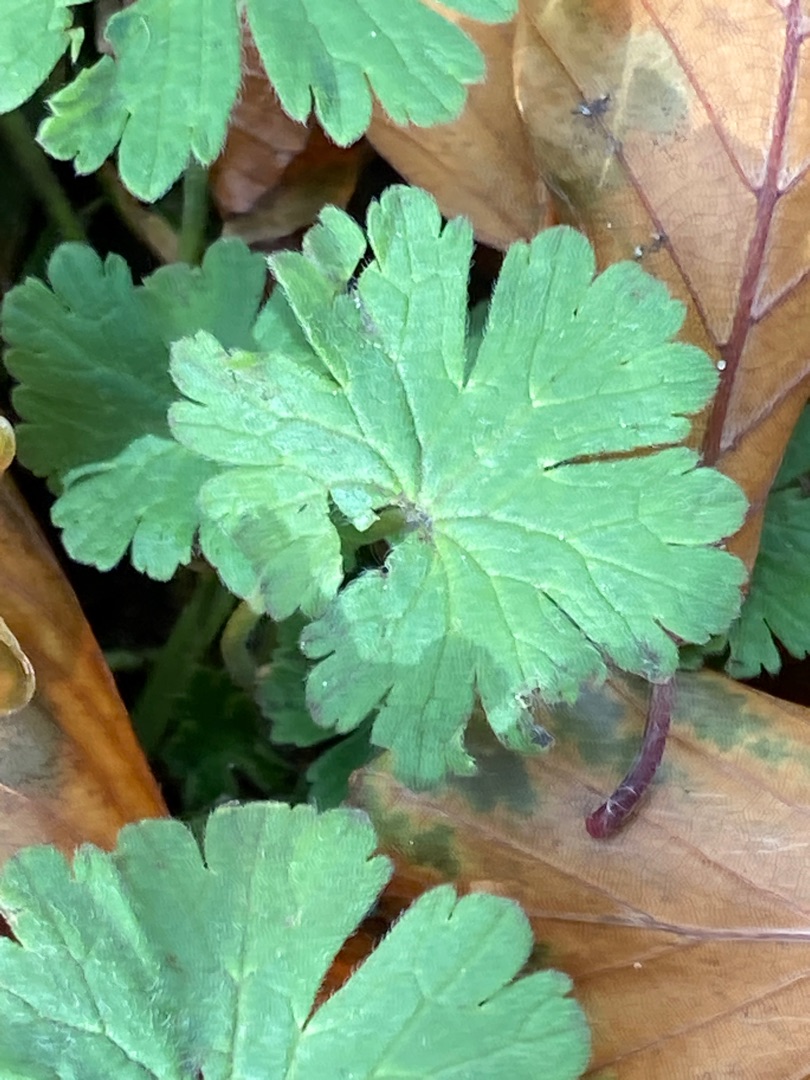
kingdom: Plantae
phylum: Tracheophyta
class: Magnoliopsida
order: Geraniales
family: Geraniaceae
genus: Geranium
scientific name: Geranium
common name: Storkenæbslægten
